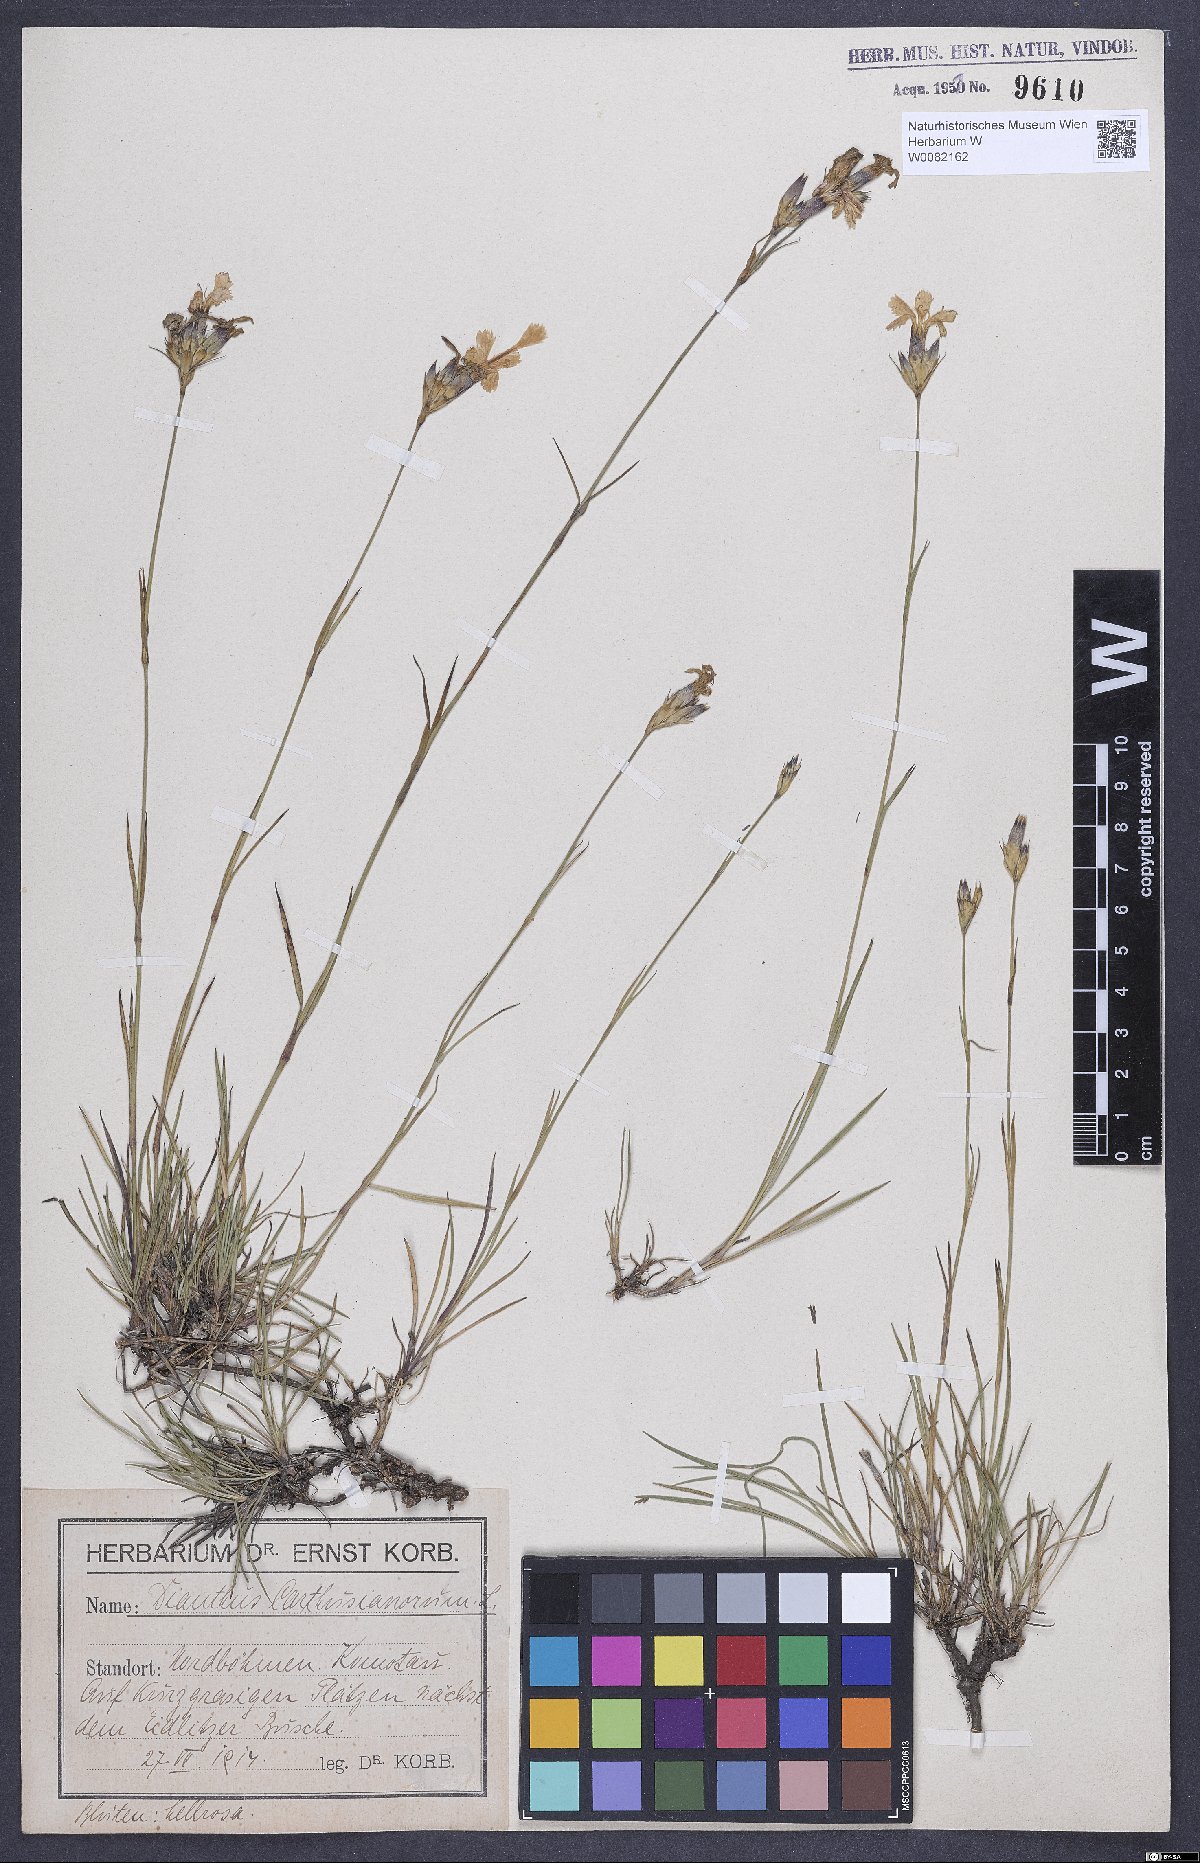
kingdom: Plantae
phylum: Tracheophyta
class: Magnoliopsida
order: Caryophyllales
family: Caryophyllaceae
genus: Dianthus
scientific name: Dianthus carthusianorum
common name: Carthusian pink
